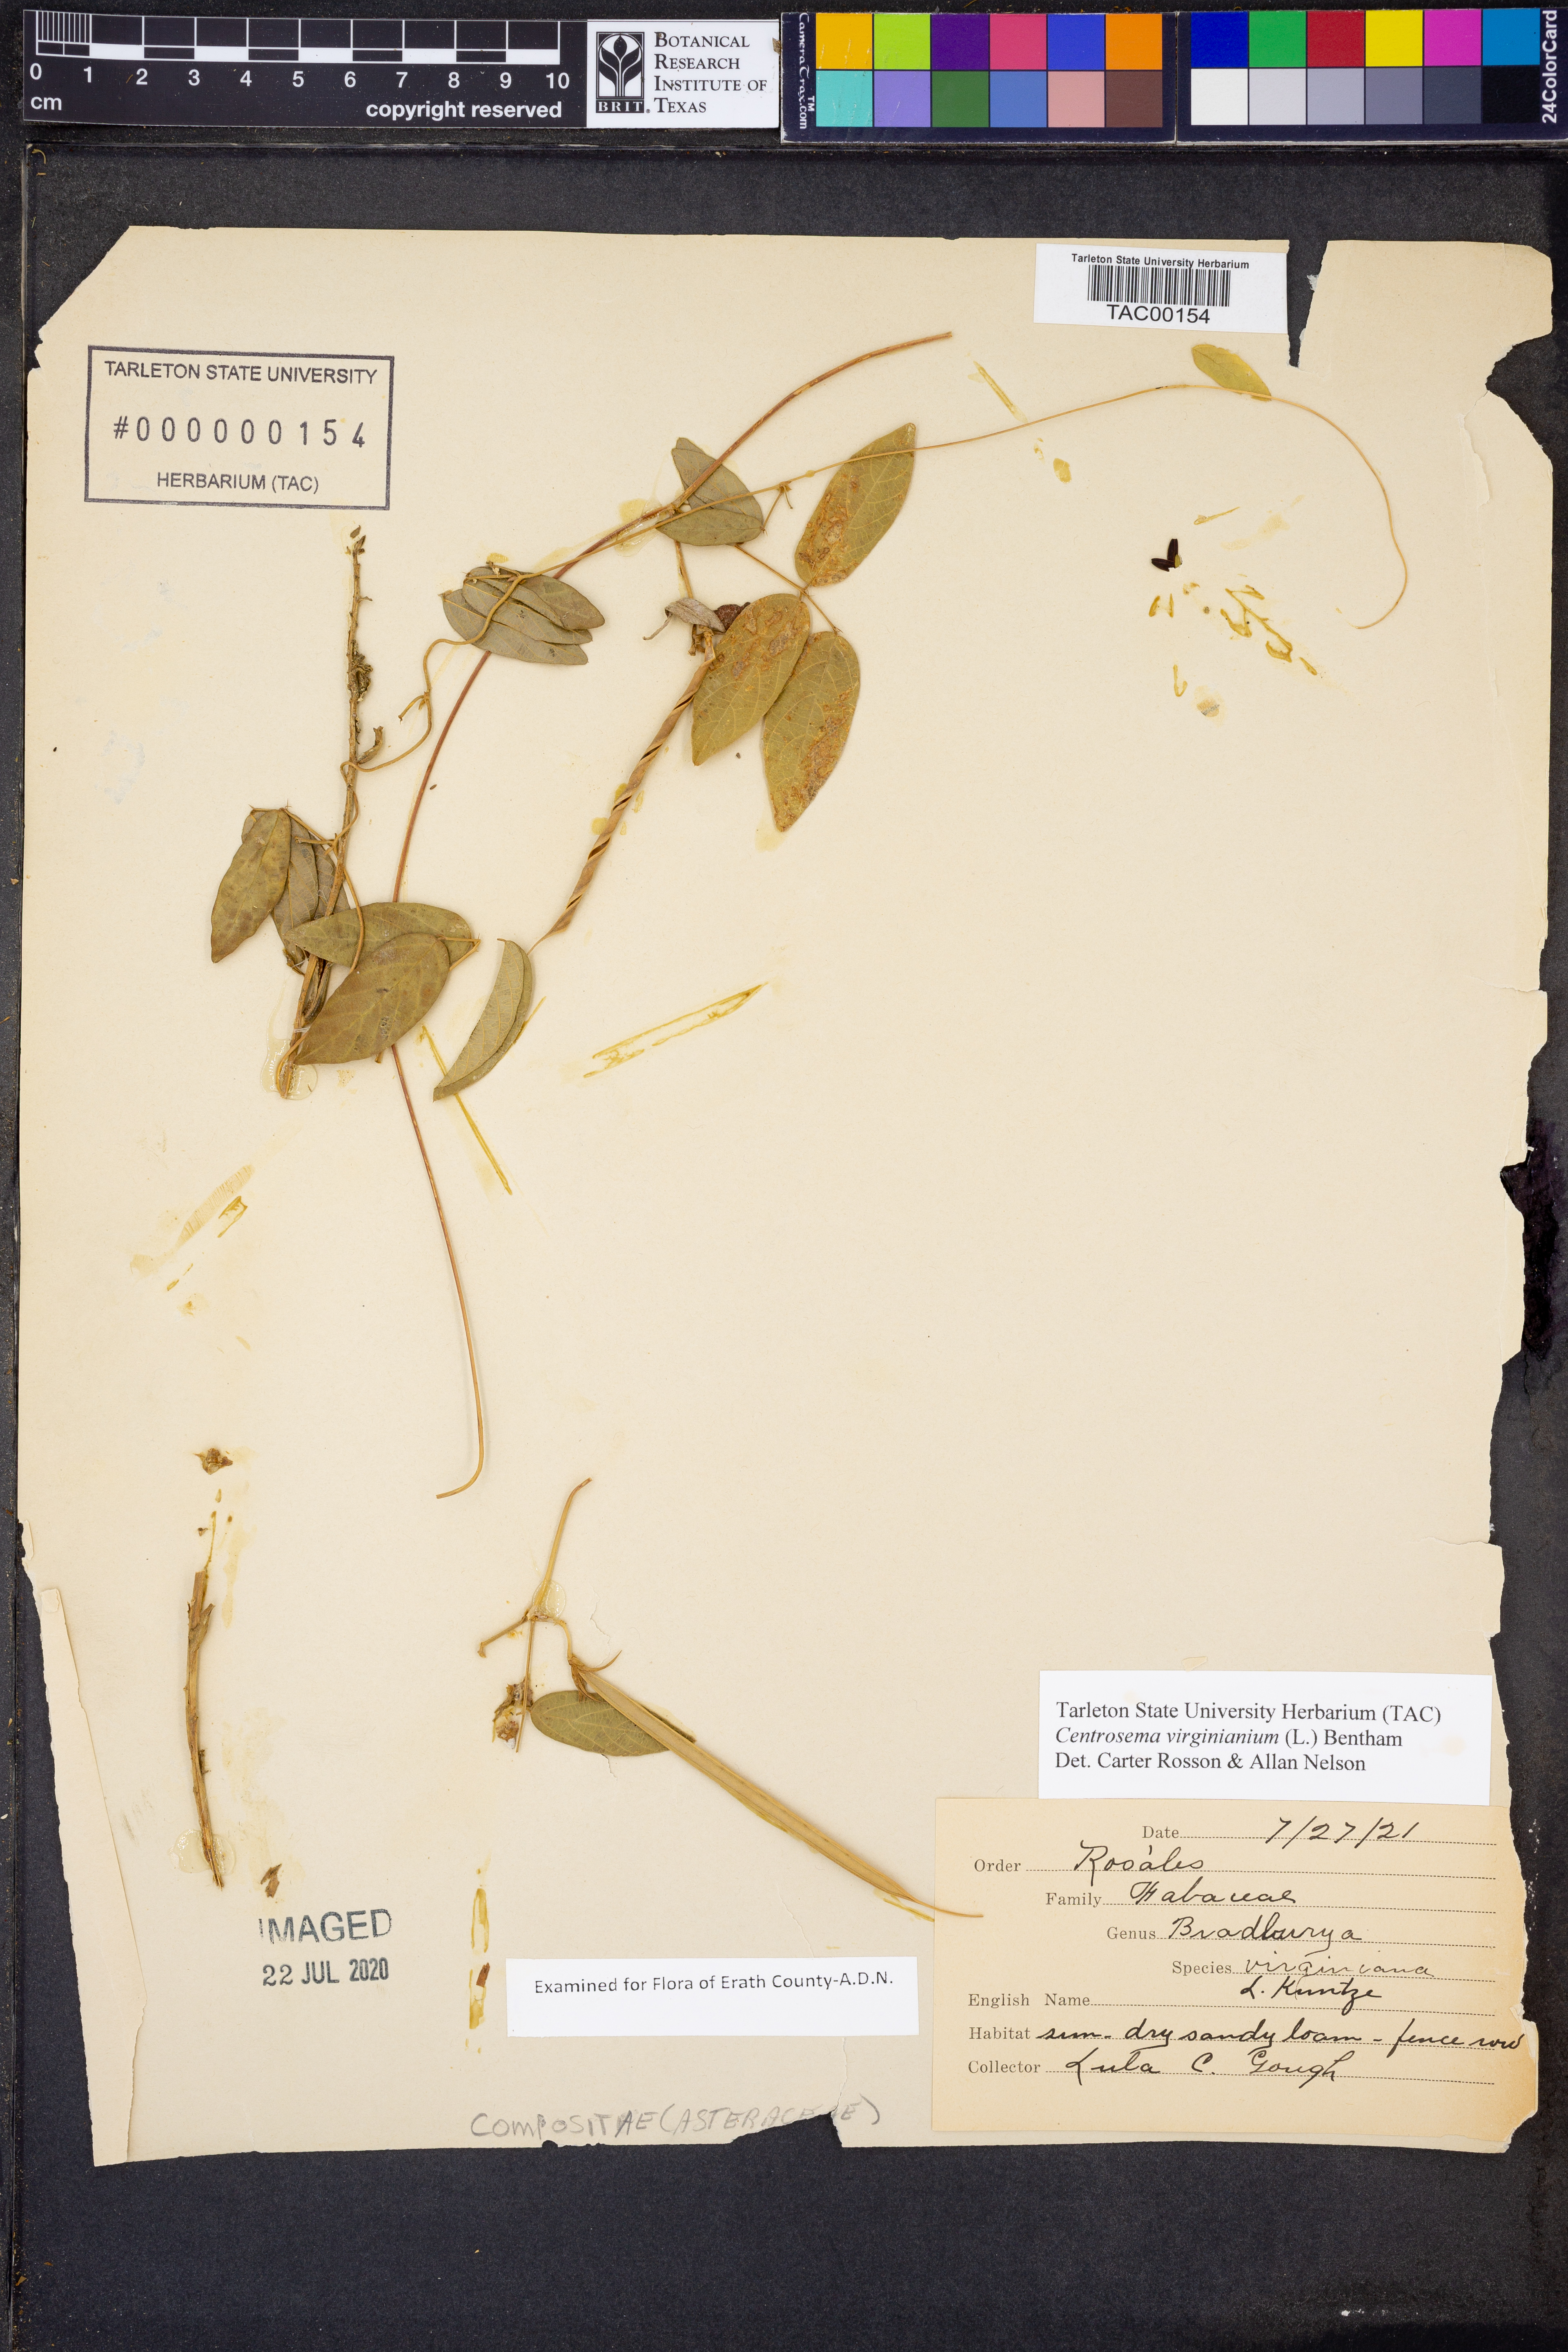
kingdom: Plantae
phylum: Tracheophyta
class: Magnoliopsida
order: Fabales
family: Fabaceae
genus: Centrosema
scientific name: Centrosema virginianum
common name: Butterfly-pea
